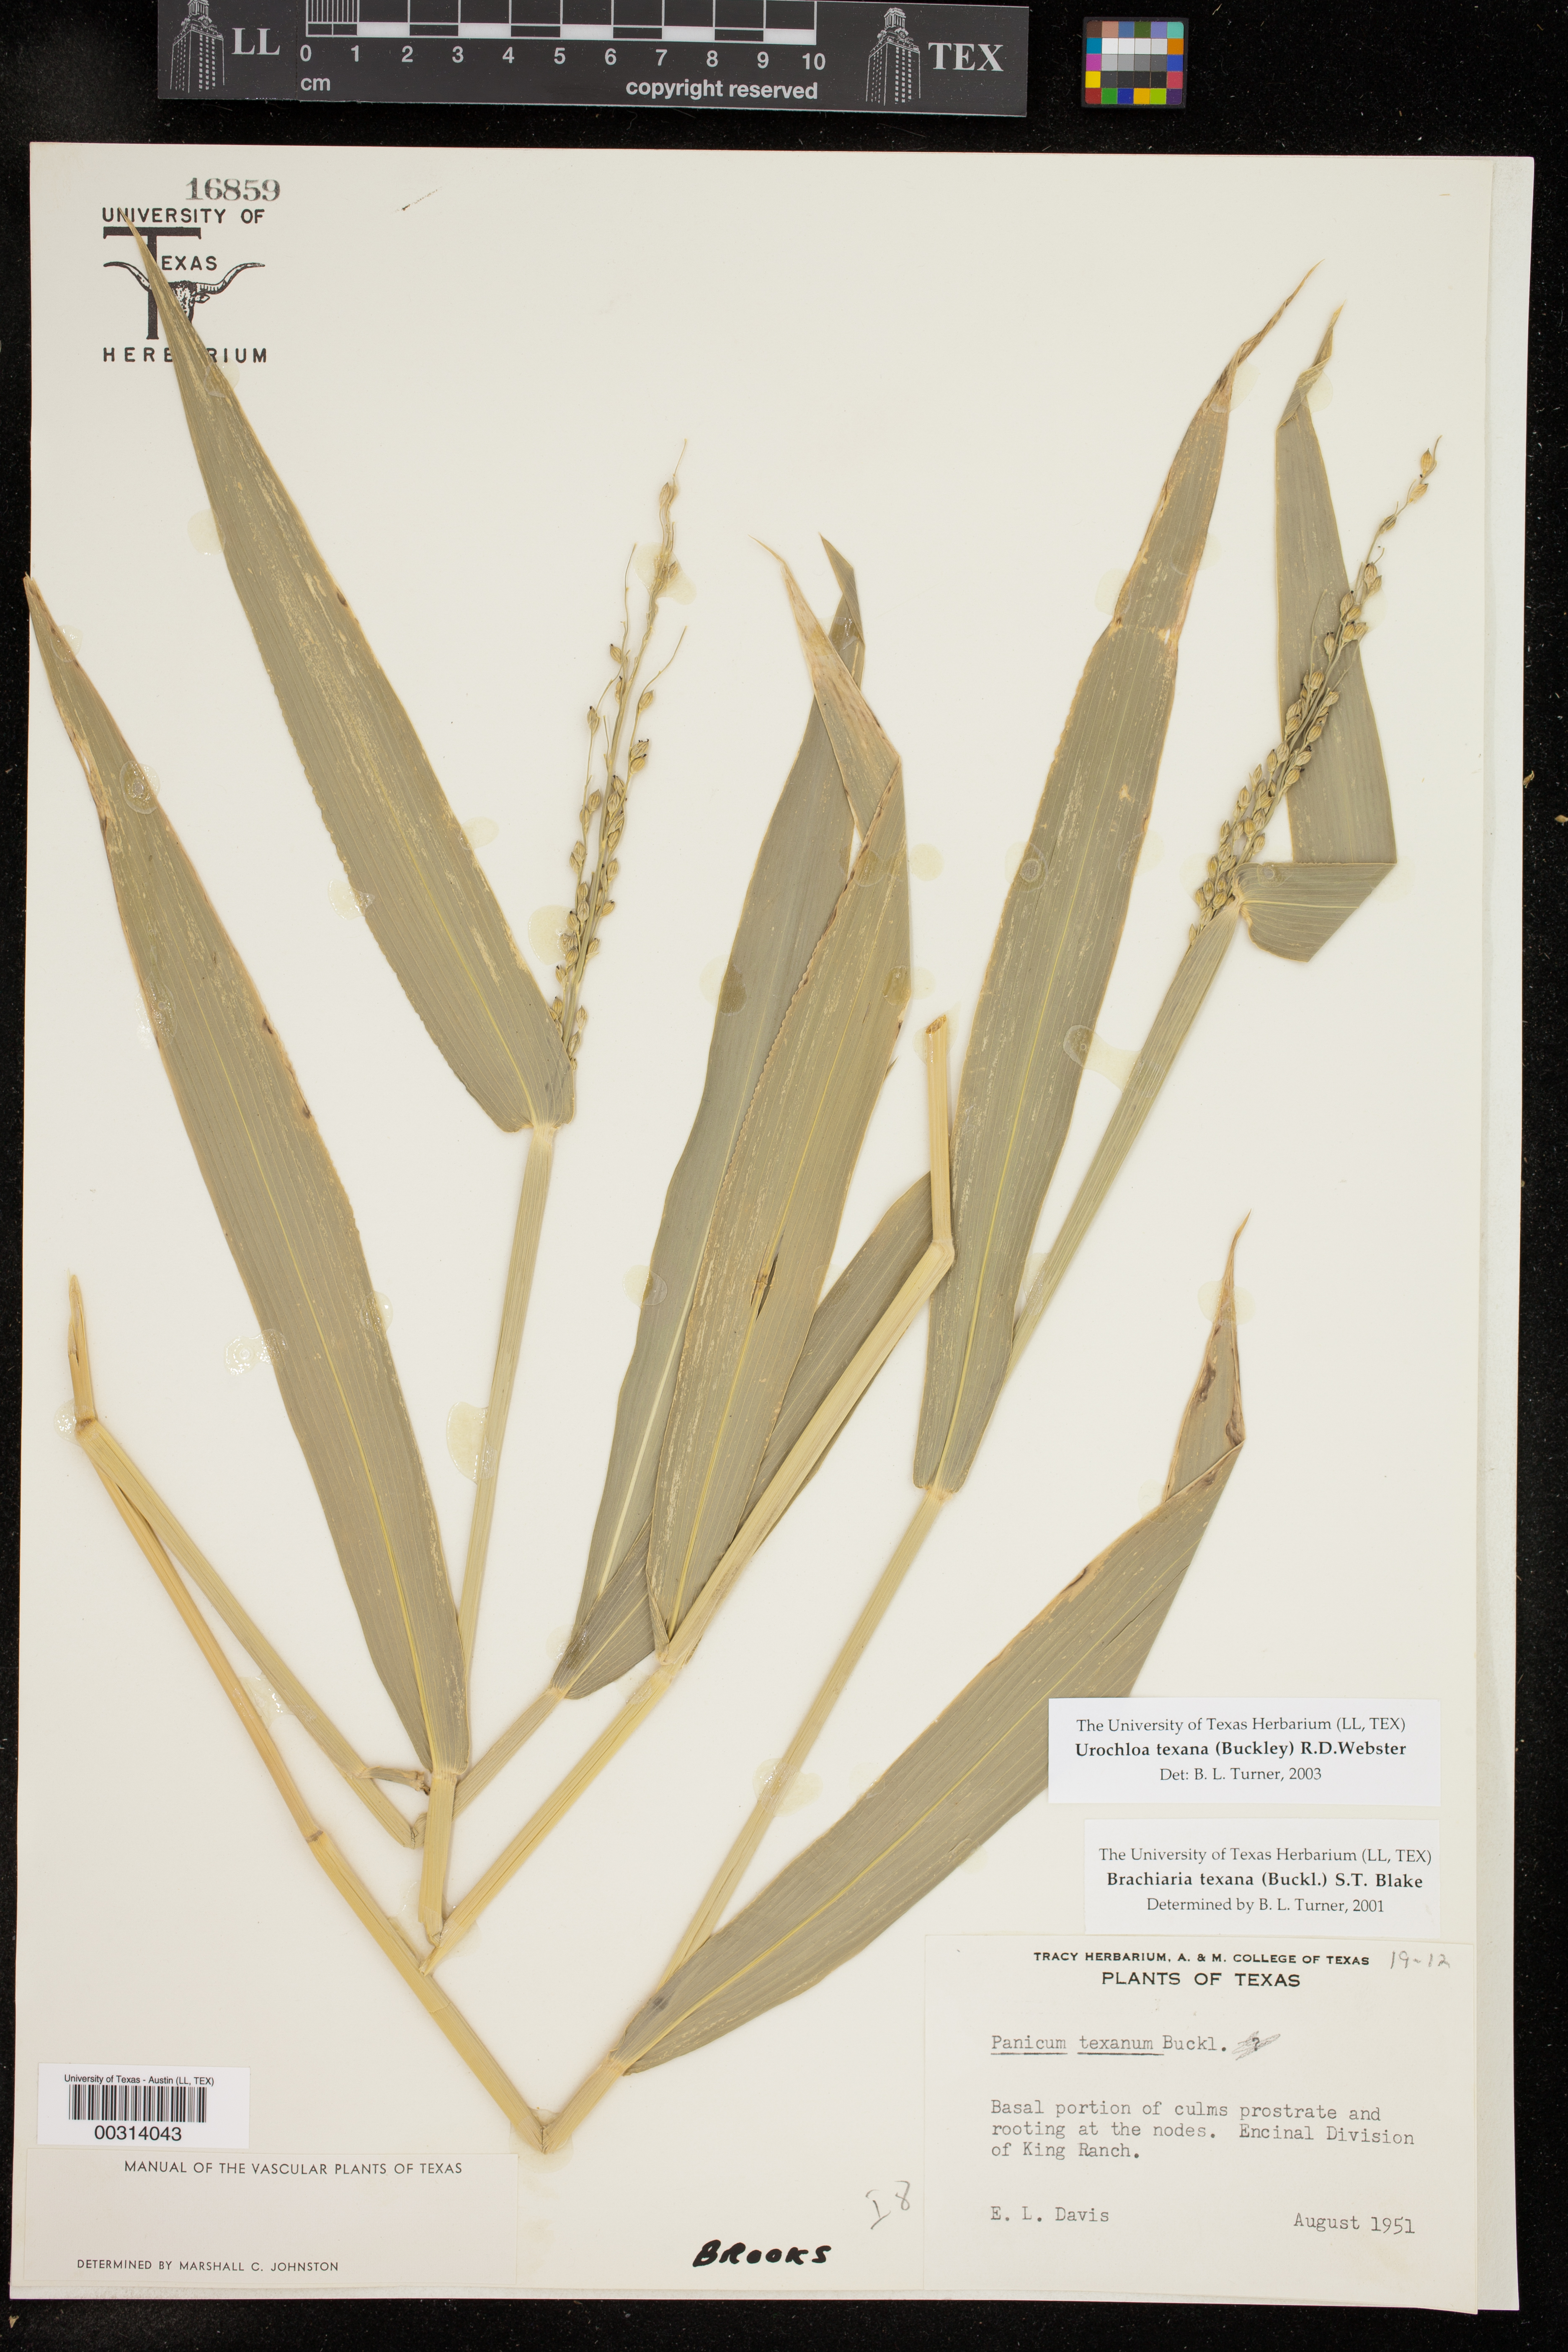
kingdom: Plantae
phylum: Tracheophyta
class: Liliopsida
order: Poales
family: Poaceae
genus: Urochloa
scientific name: Urochloa texana
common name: Texas millet
